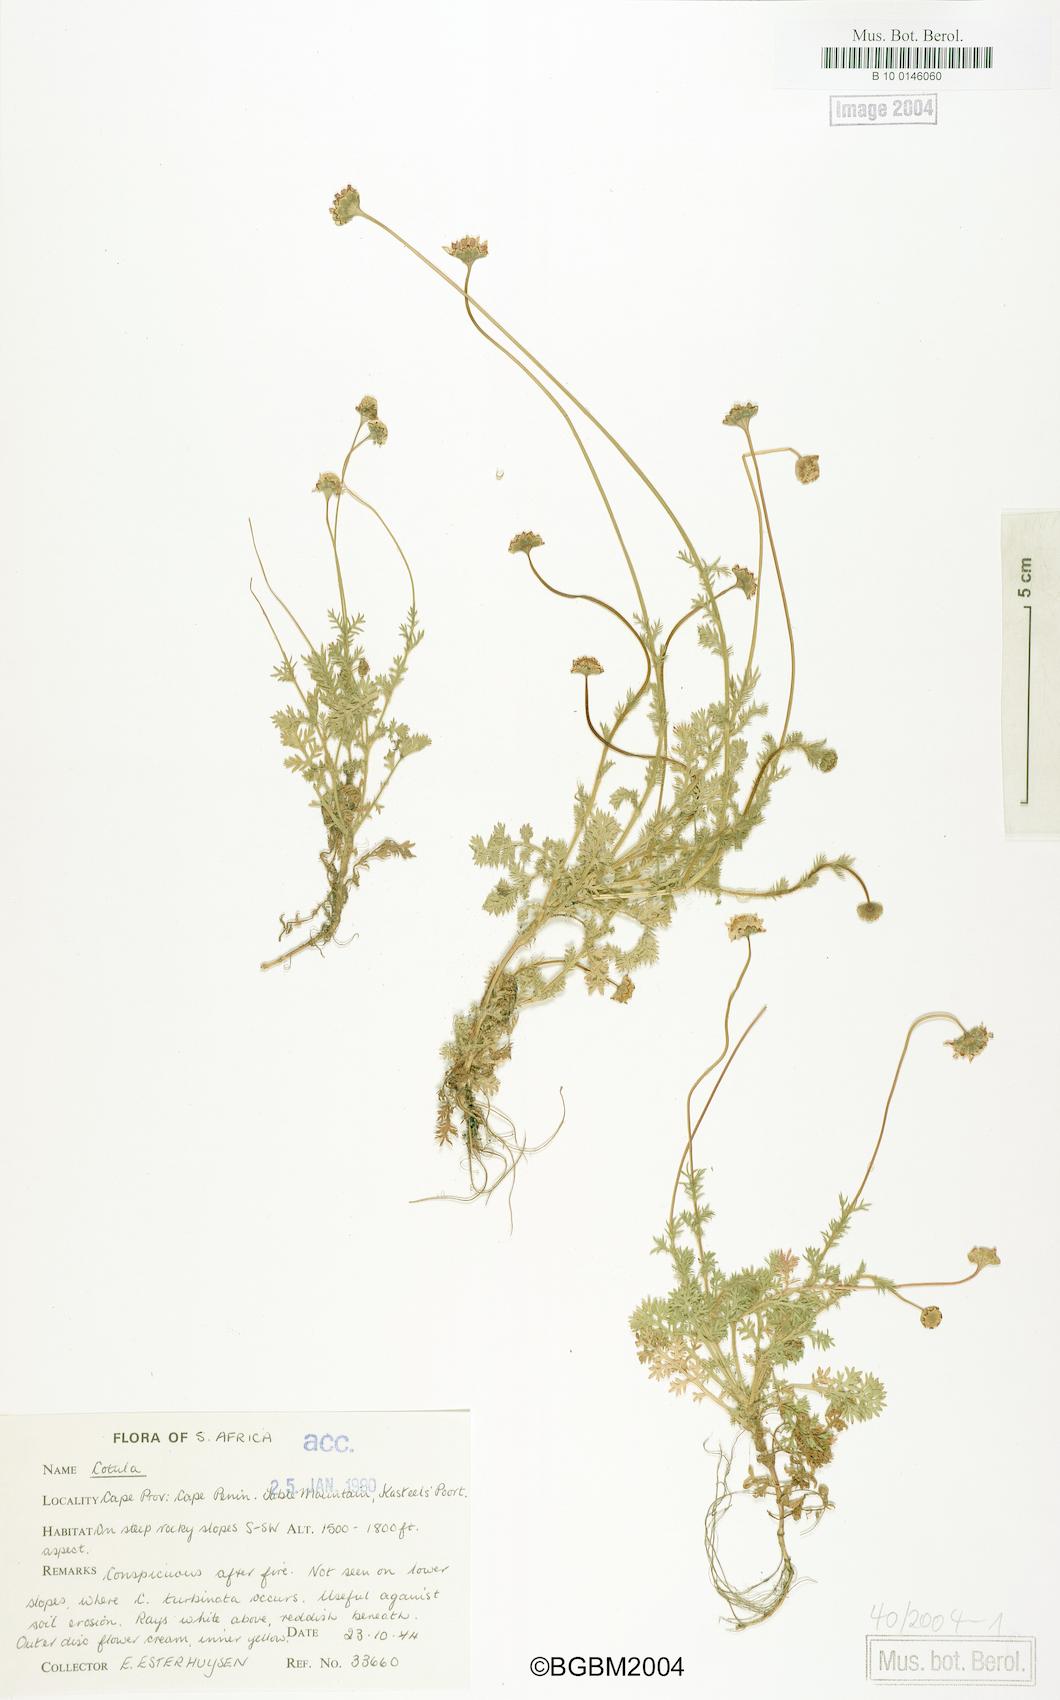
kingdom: Plantae
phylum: Tracheophyta
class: Magnoliopsida
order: Asterales
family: Asteraceae
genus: Cotula
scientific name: Cotula
